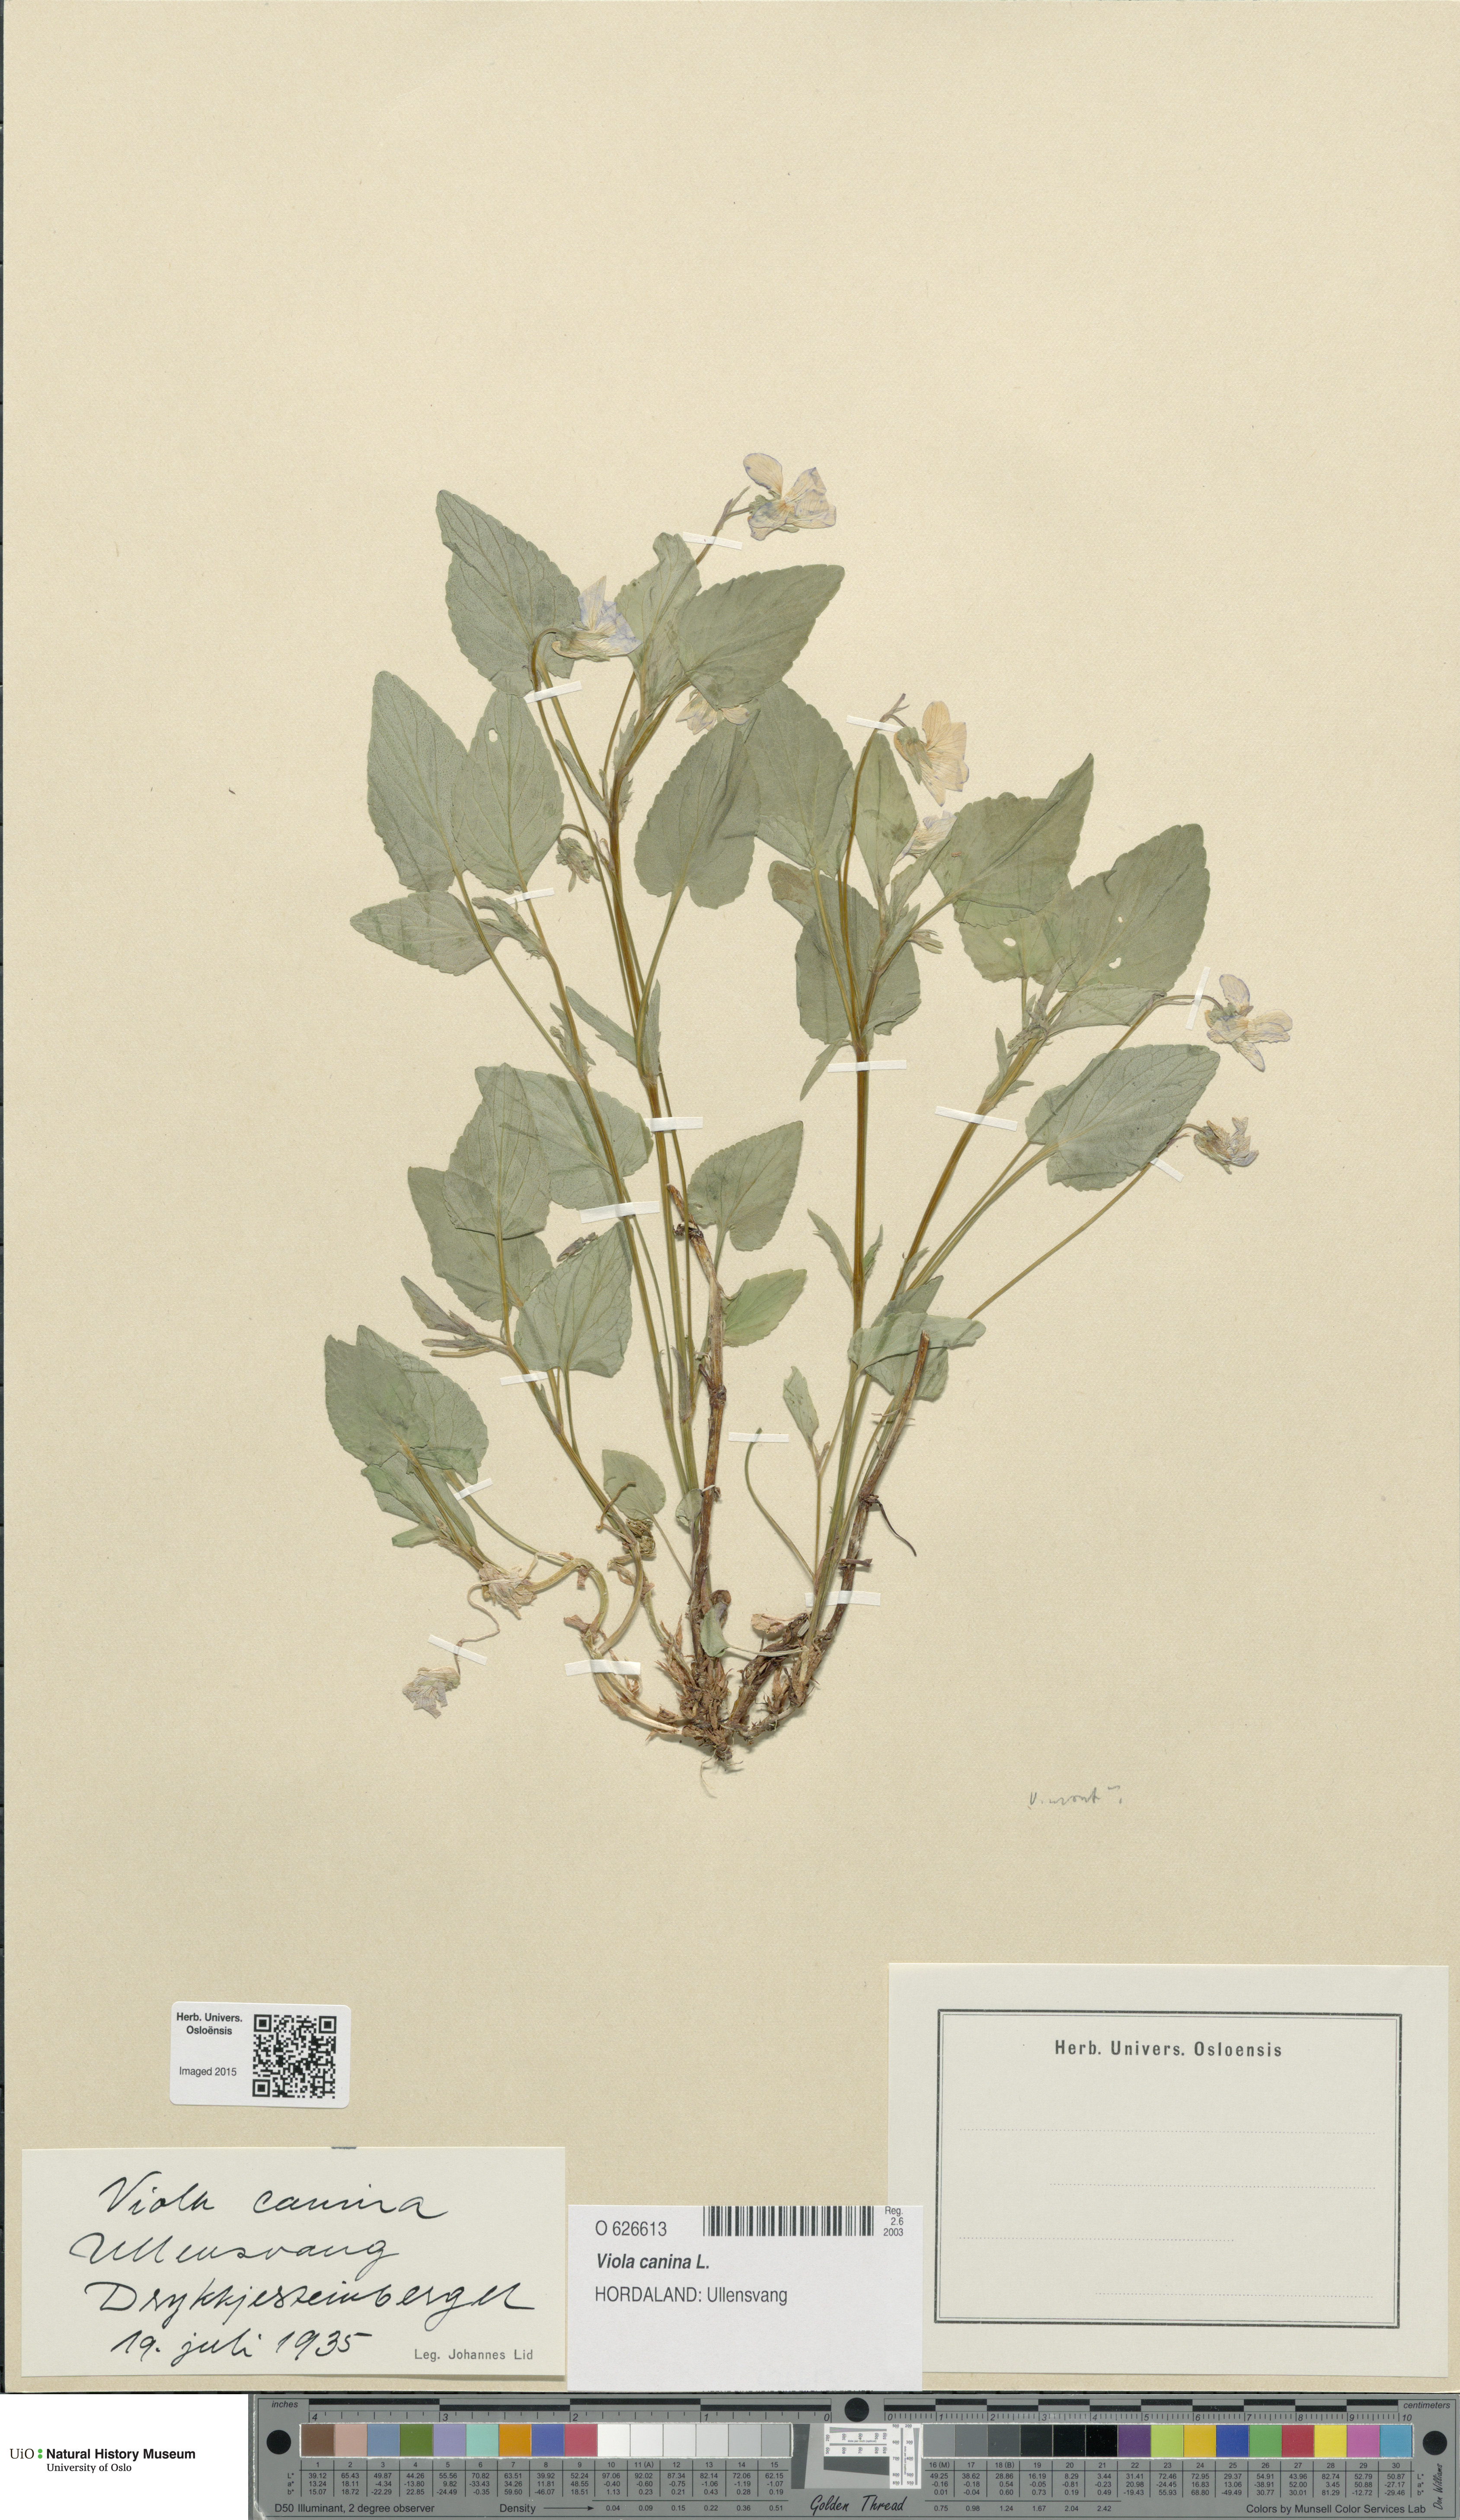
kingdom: Plantae
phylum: Tracheophyta
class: Magnoliopsida
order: Malpighiales
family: Violaceae
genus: Viola
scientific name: Viola canina
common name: Heath dog-violet
